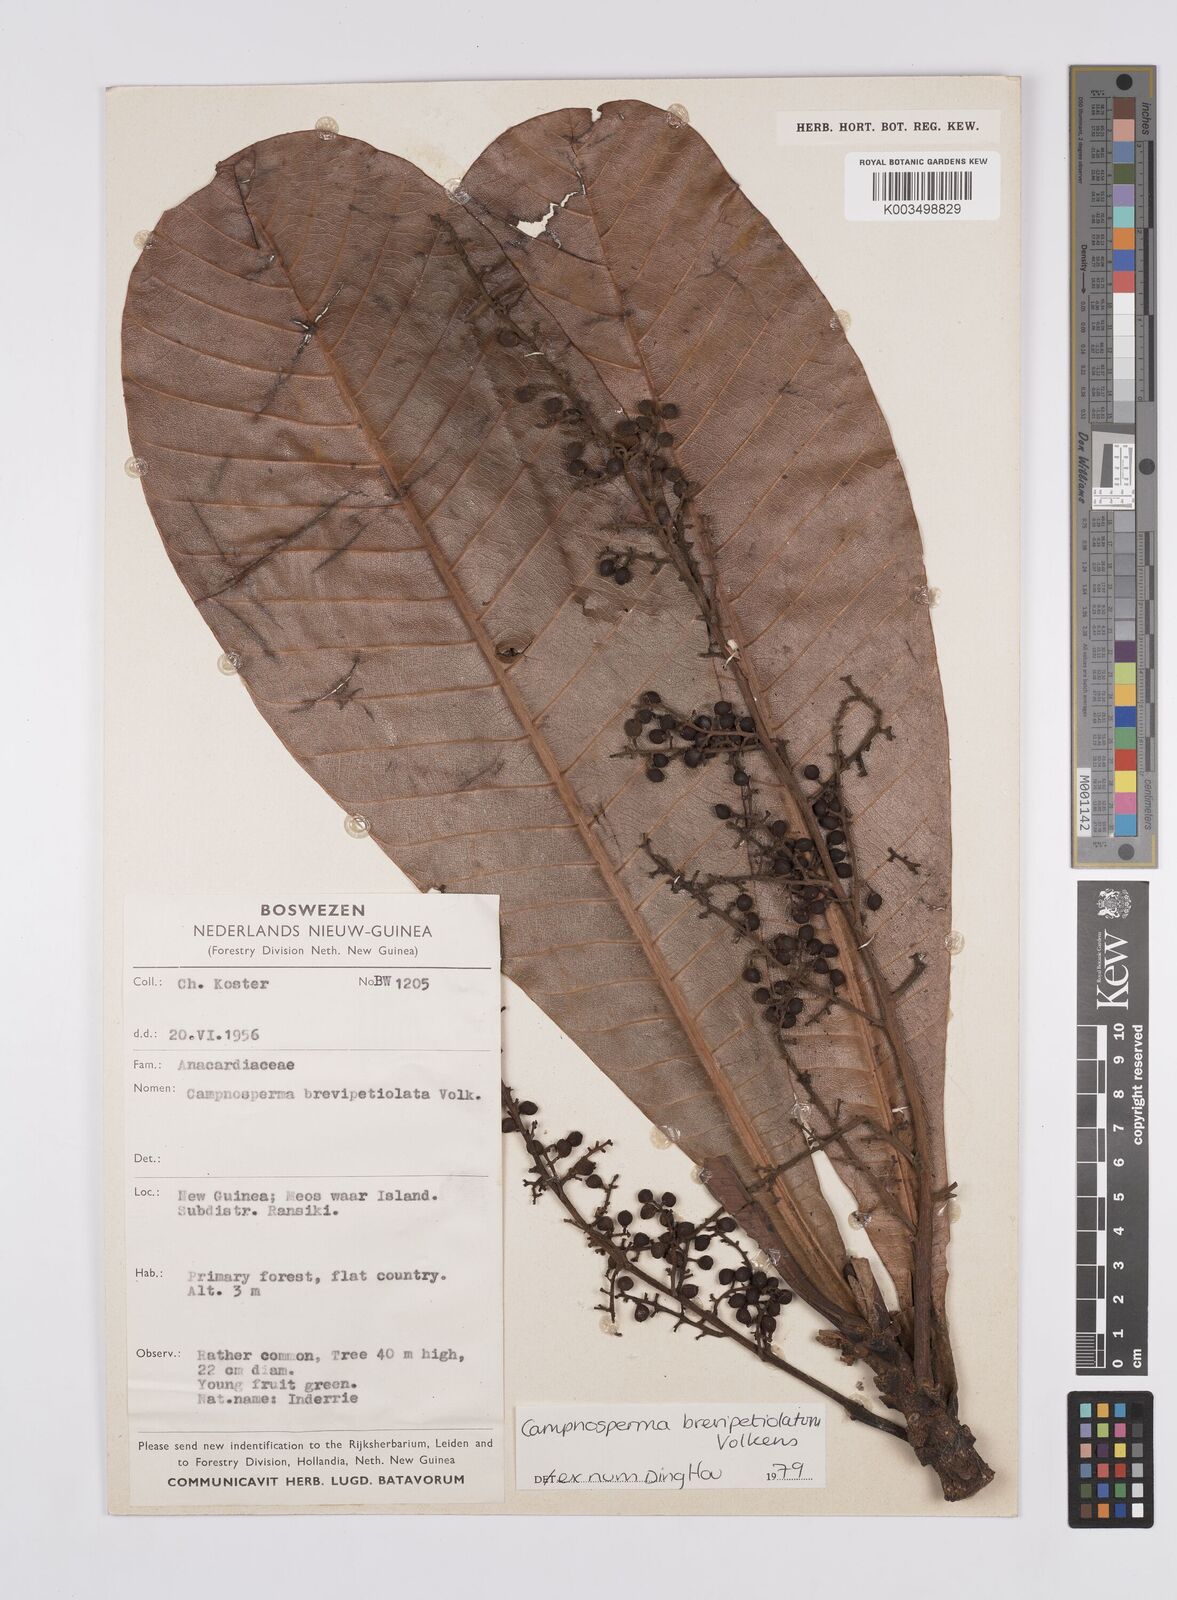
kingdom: Plantae
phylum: Tracheophyta
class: Magnoliopsida
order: Sapindales
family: Anacardiaceae
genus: Campnosperma
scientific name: Campnosperma brevipetiolatum
